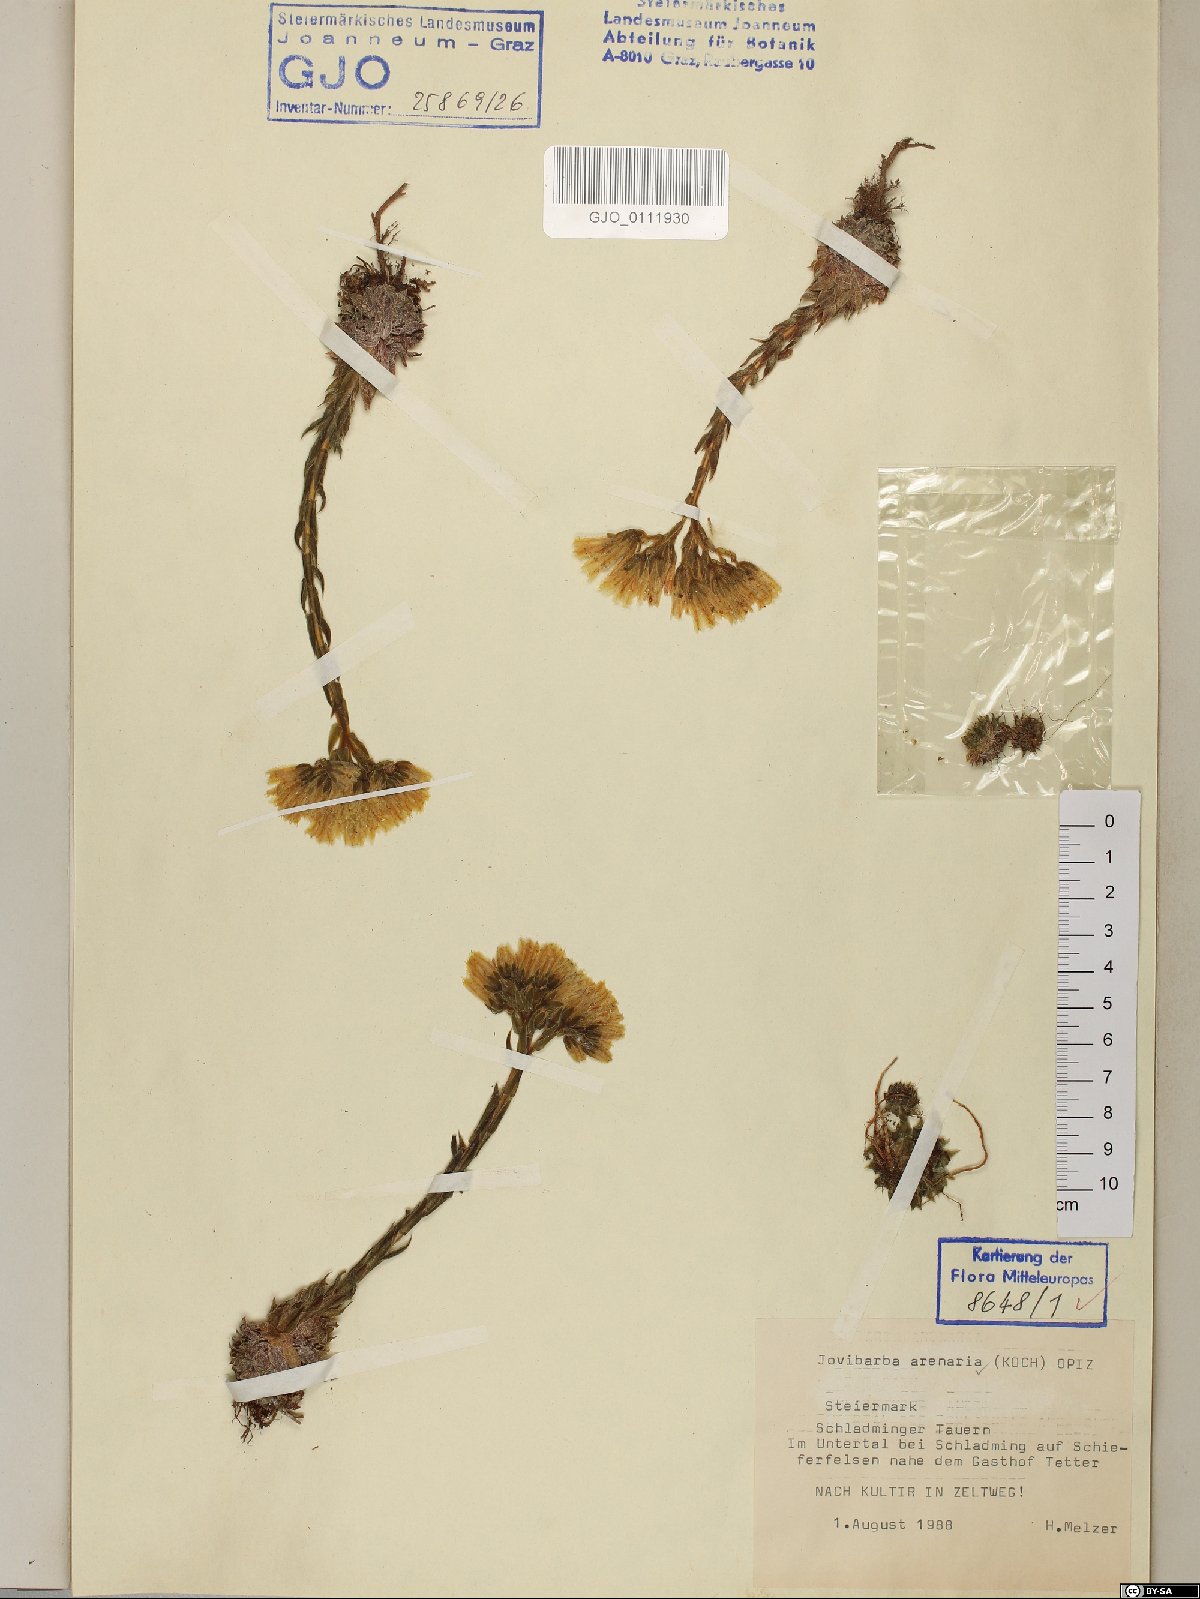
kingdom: Plantae
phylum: Tracheophyta
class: Magnoliopsida
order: Saxifragales
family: Crassulaceae
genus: Sempervivum
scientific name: Sempervivum globiferum
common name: Rolling hen-and-chicks
